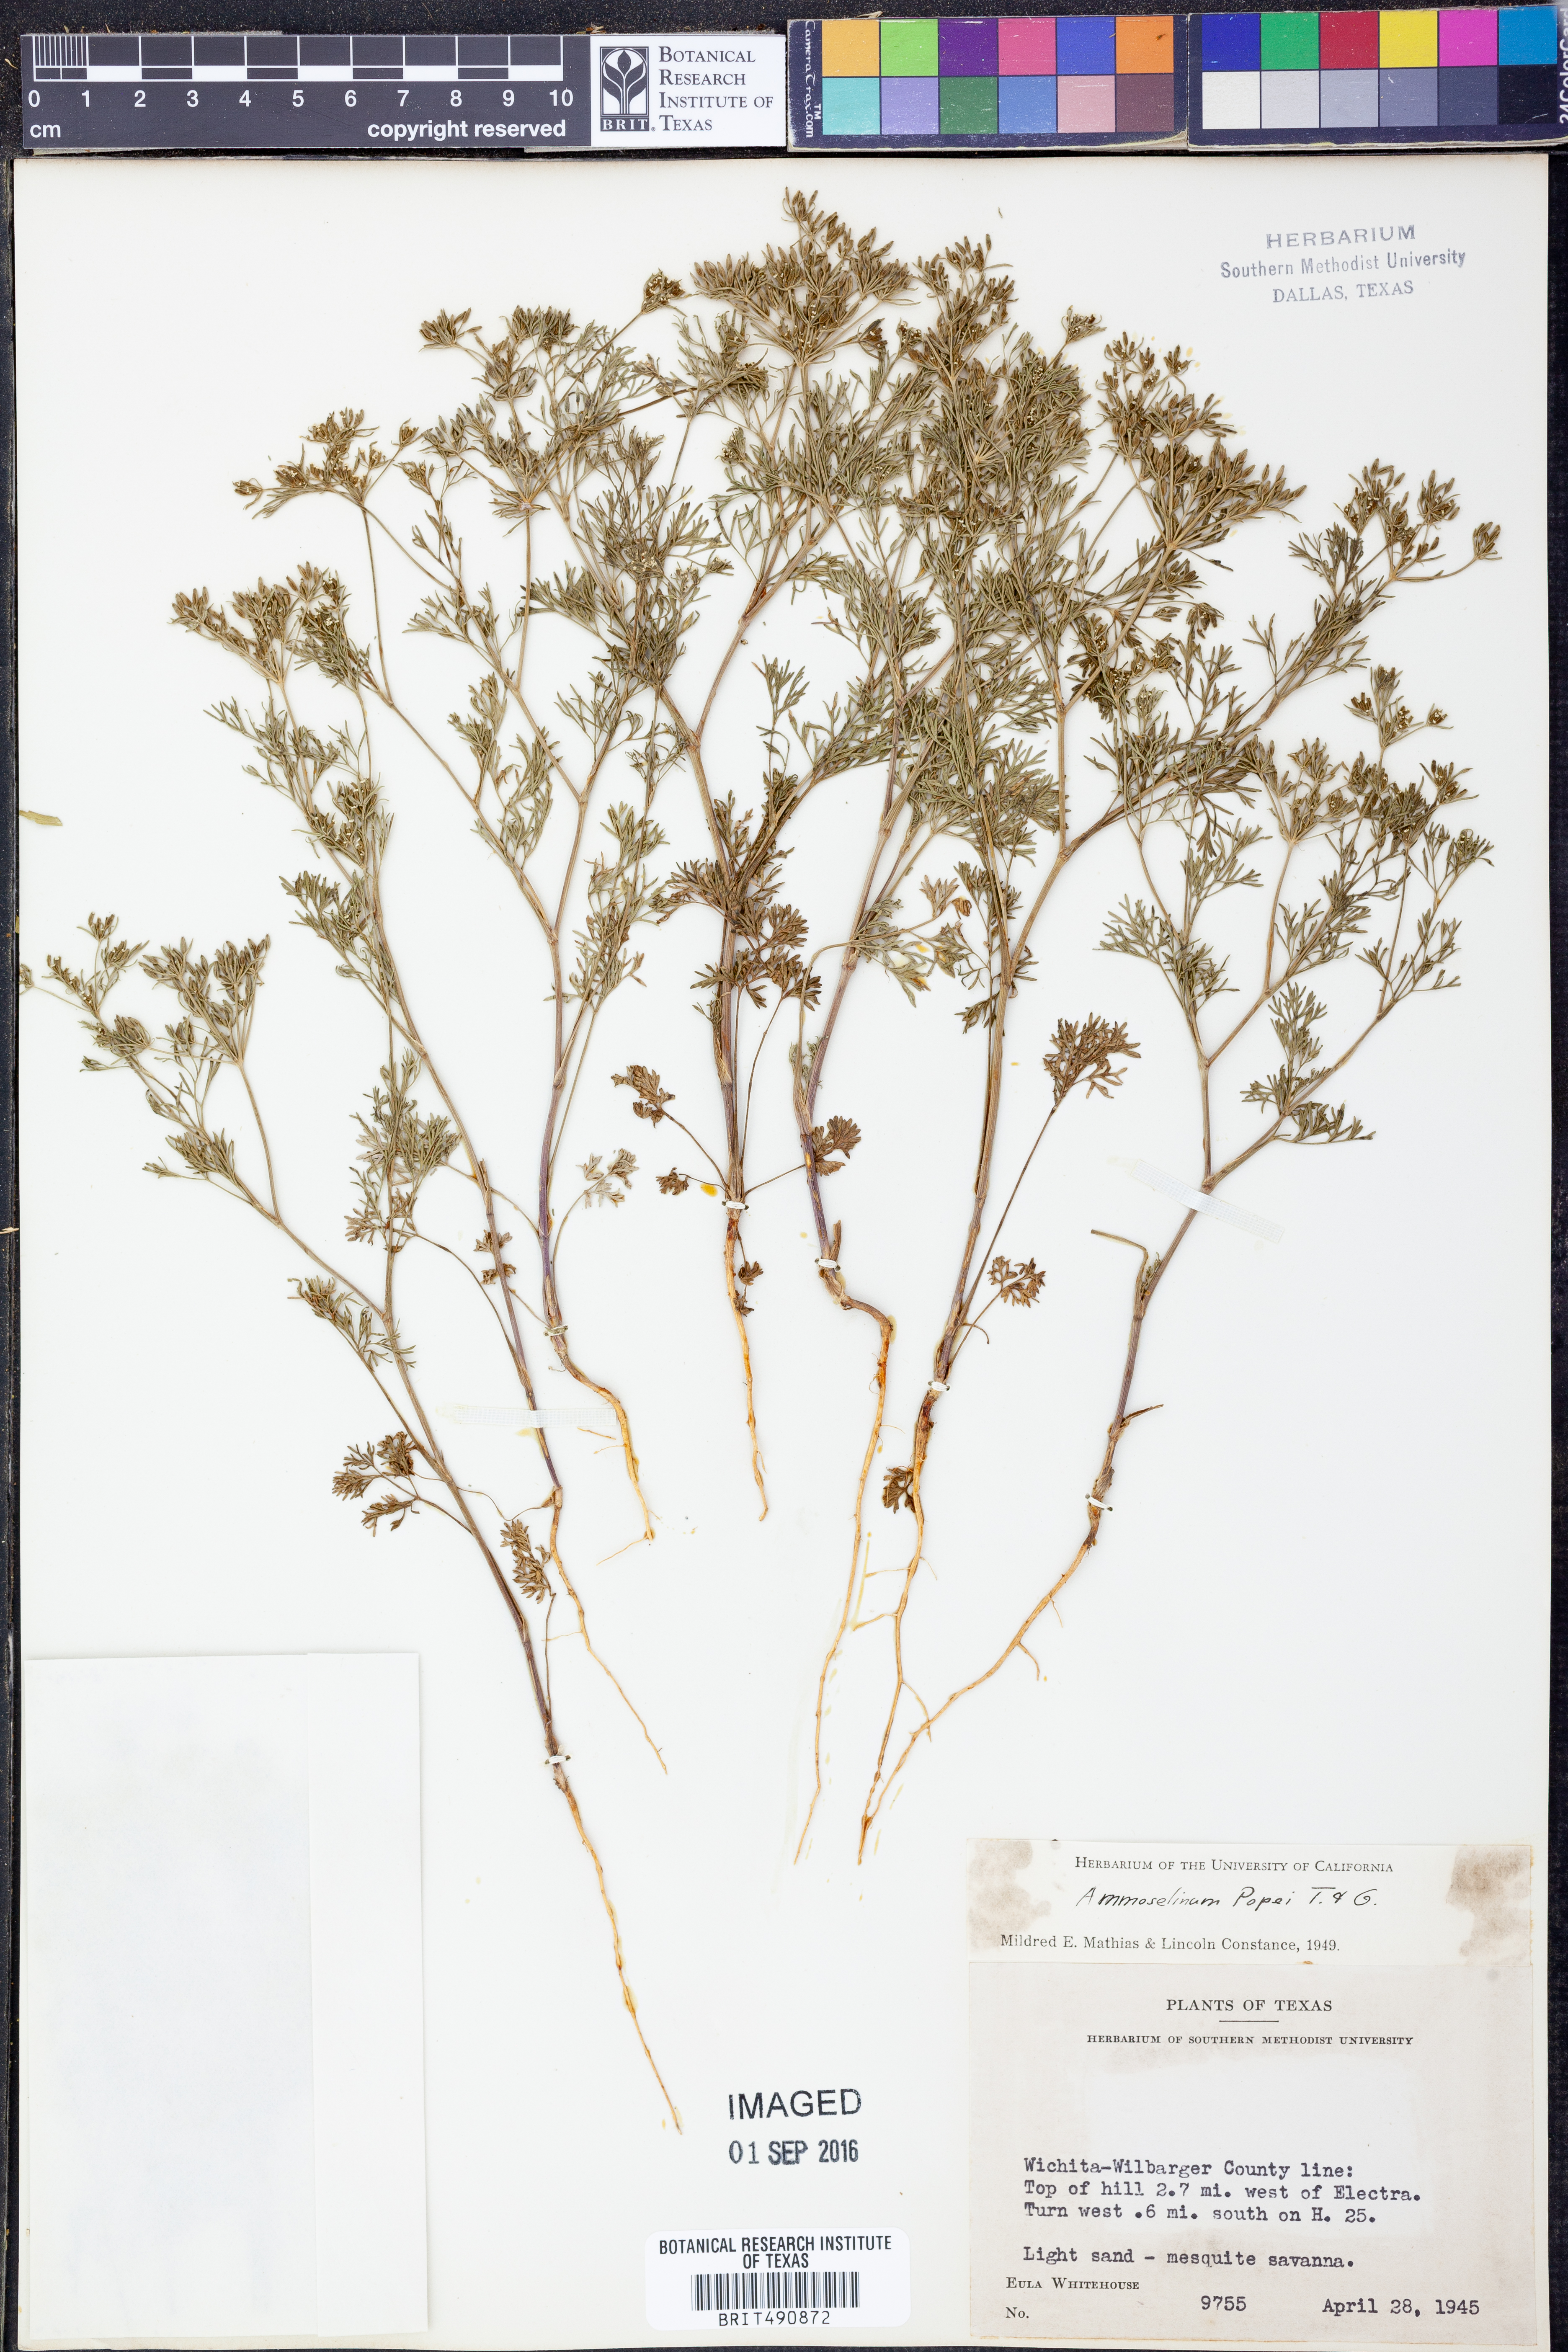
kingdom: Plantae
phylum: Tracheophyta
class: Magnoliopsida
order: Apiales
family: Apiaceae
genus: Ammoselinum
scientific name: Ammoselinum popei
